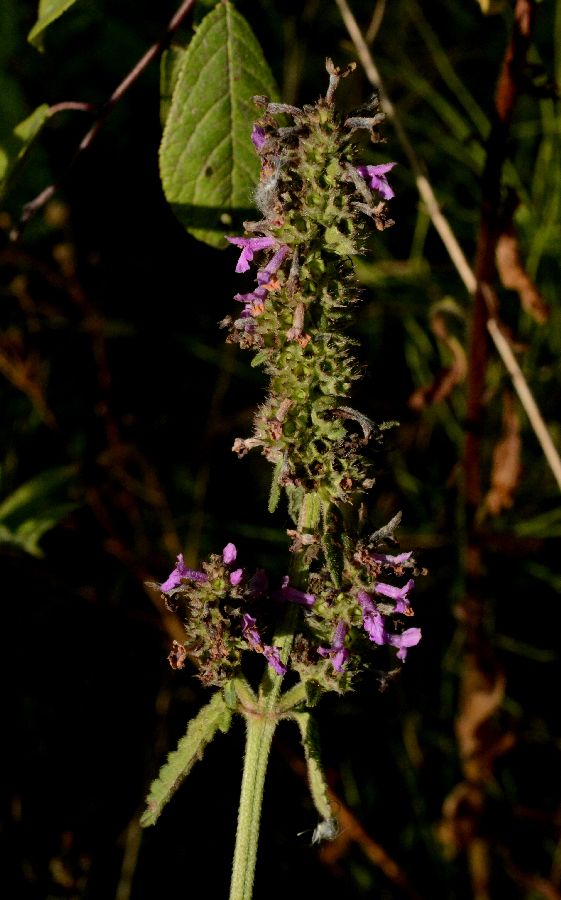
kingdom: Plantae
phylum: Tracheophyta
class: Magnoliopsida
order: Lamiales
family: Lamiaceae
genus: Stachys
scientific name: Stachys officinalis
